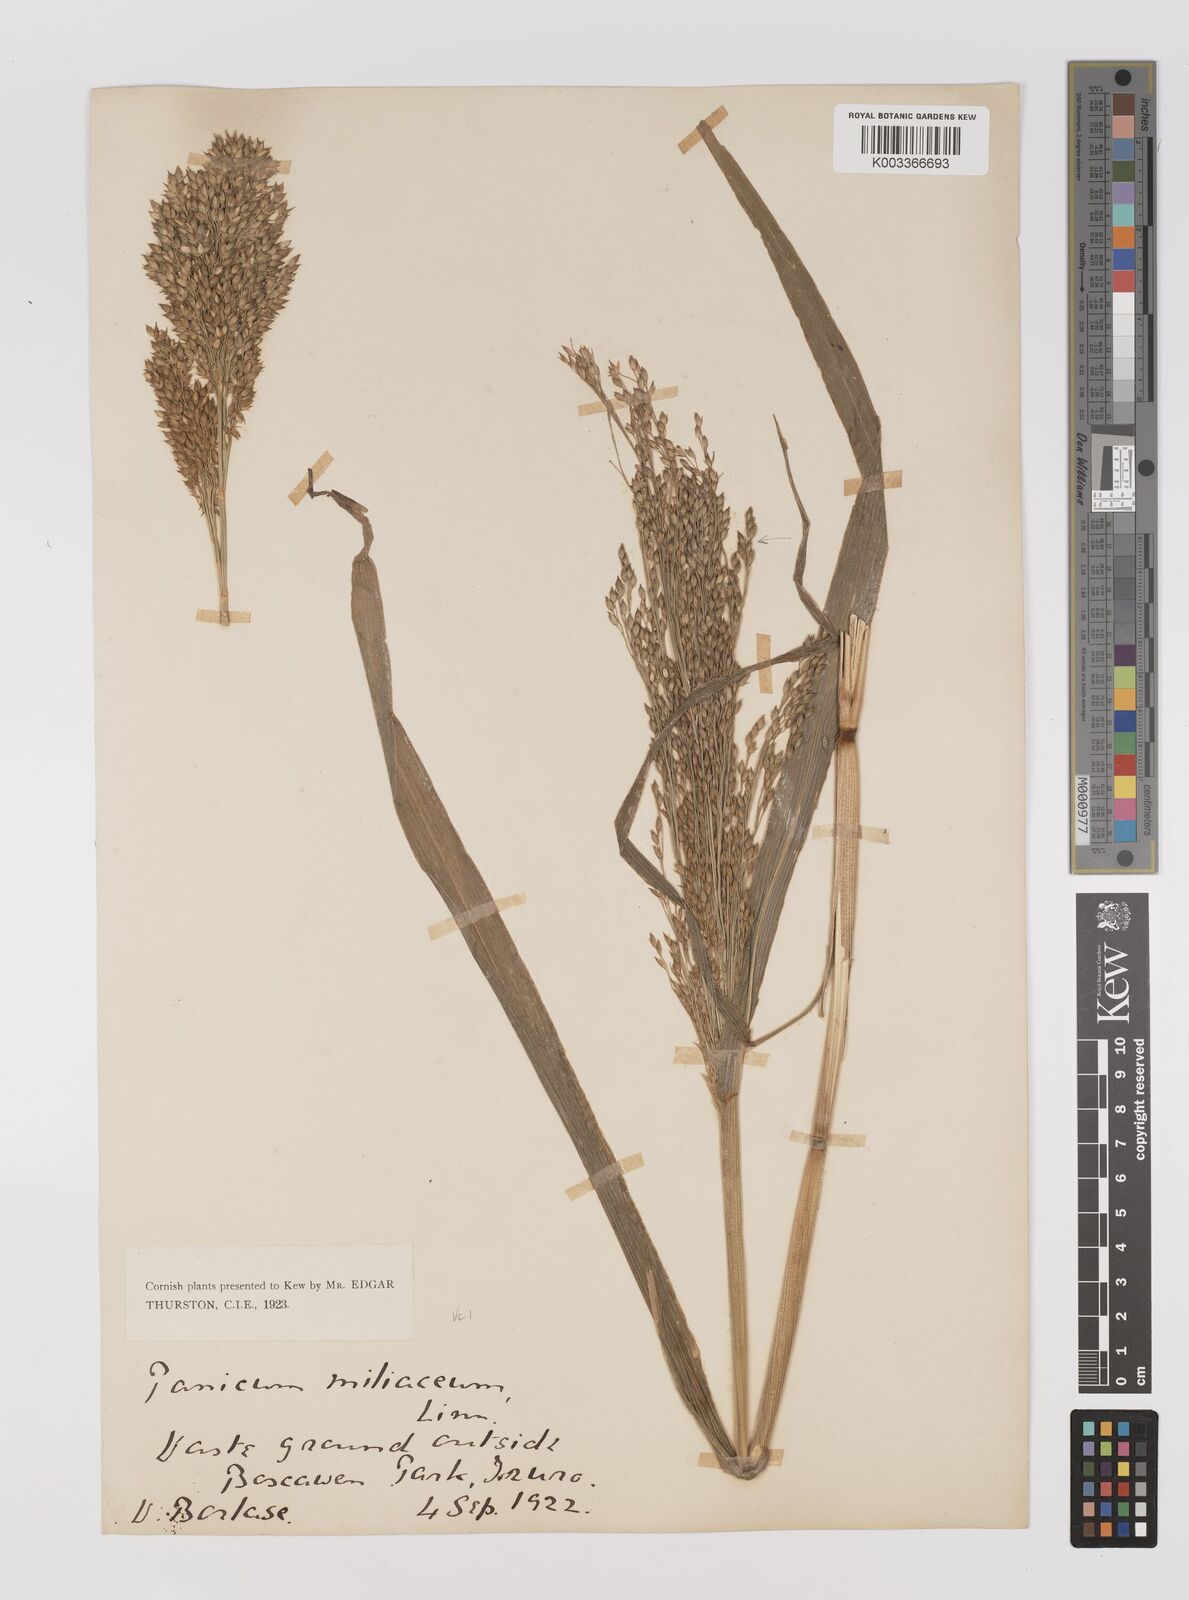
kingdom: Plantae
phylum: Tracheophyta
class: Liliopsida
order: Poales
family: Poaceae
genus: Panicum
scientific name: Panicum miliaceum
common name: Common millet
